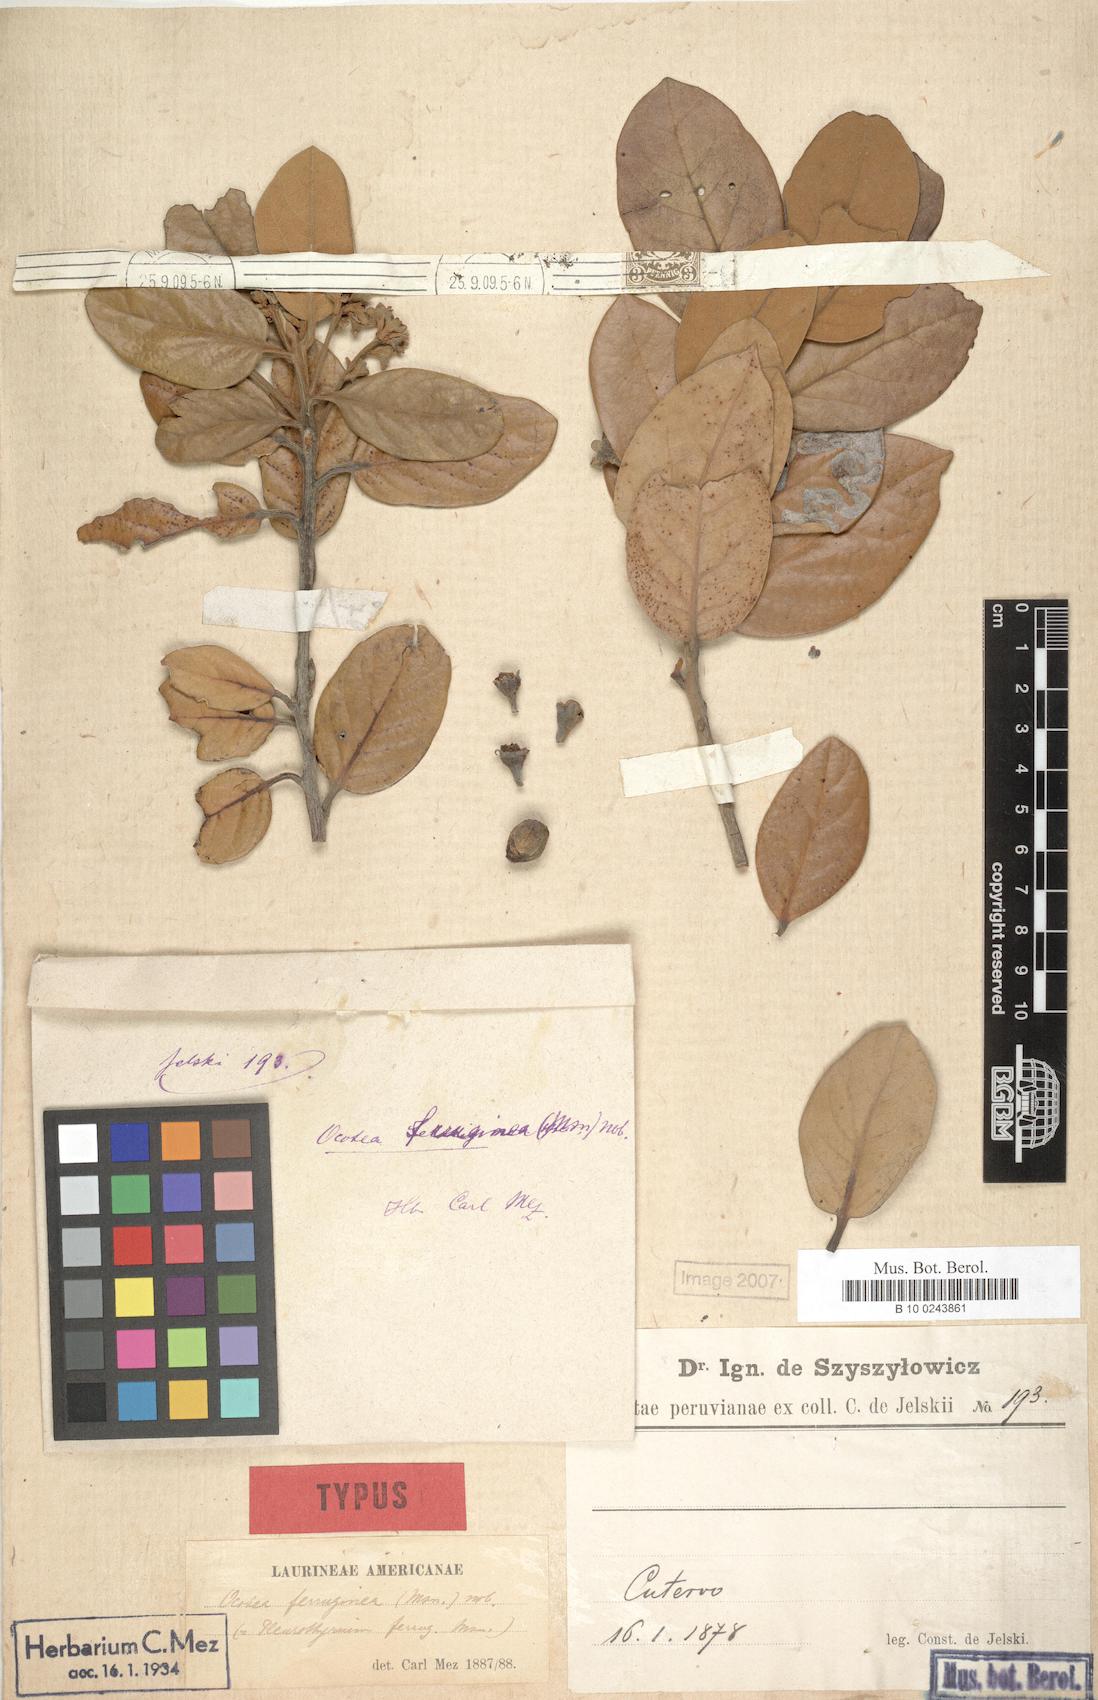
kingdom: Plantae
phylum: Tracheophyta
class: Magnoliopsida
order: Laurales
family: Lauraceae
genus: Ocotea
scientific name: Ocotea arnottiana
